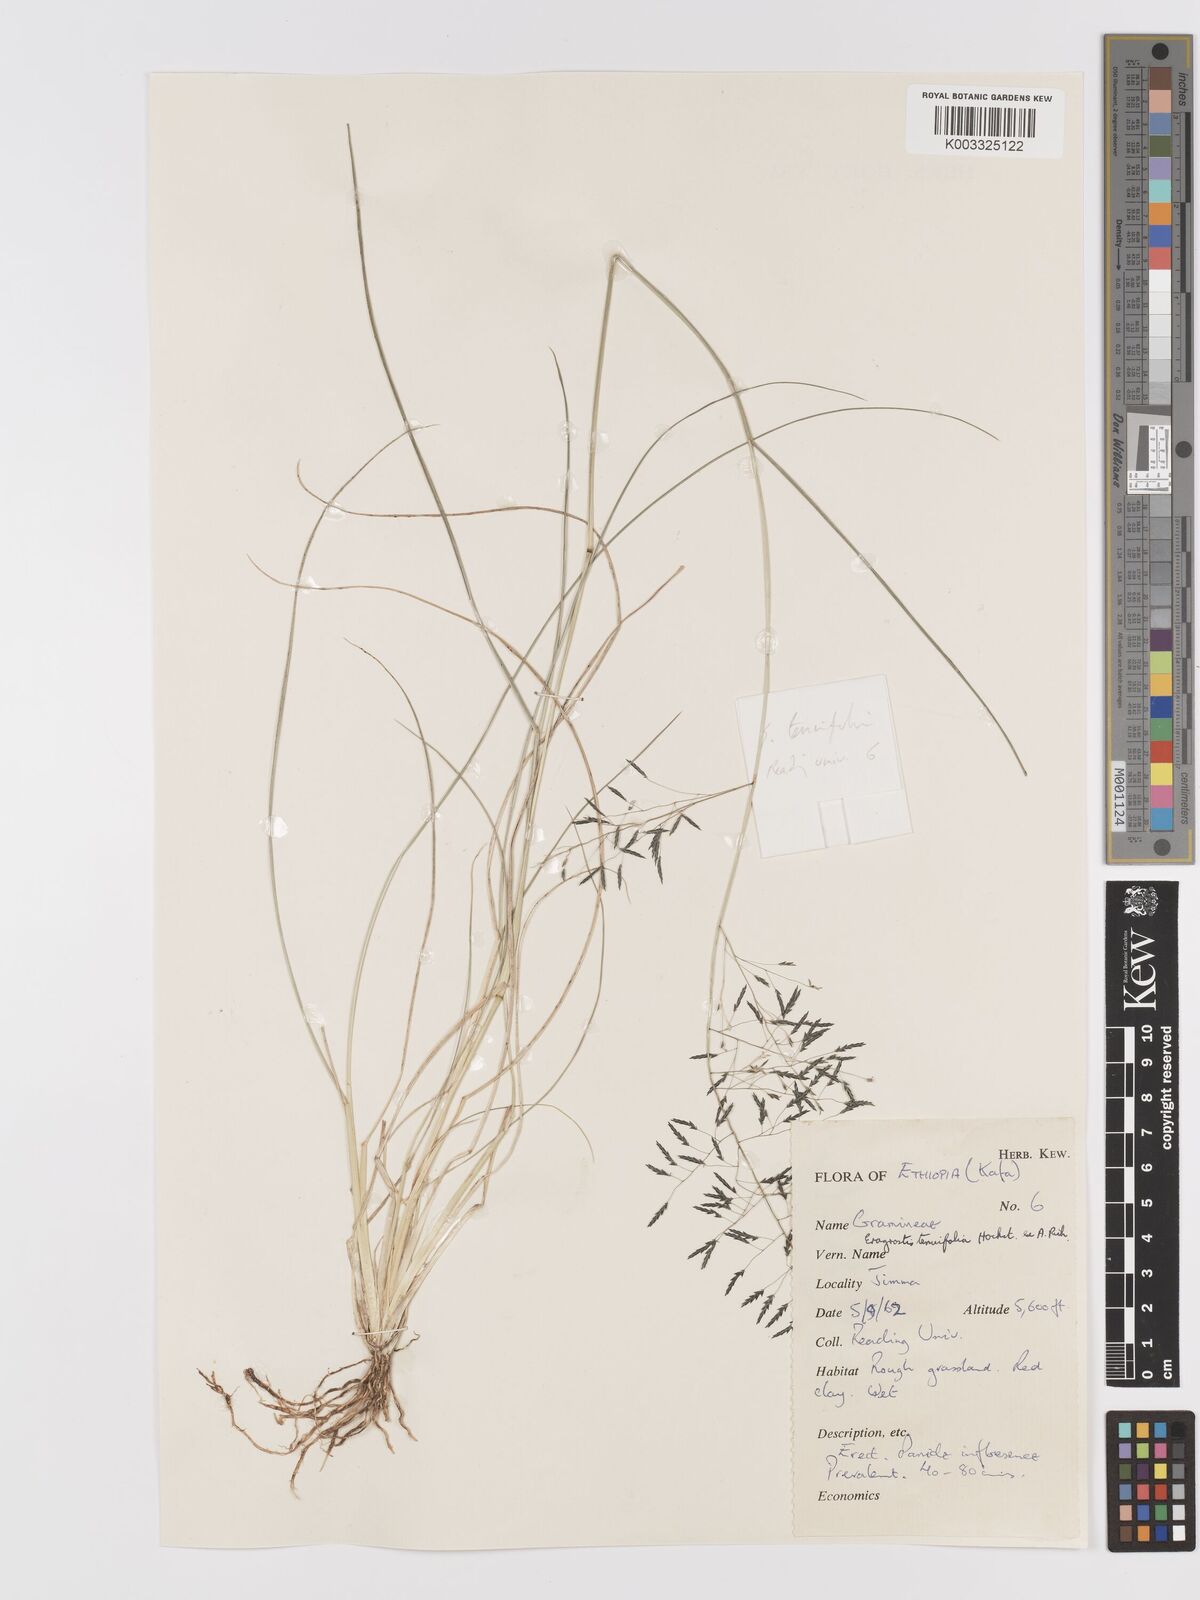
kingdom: Plantae
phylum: Tracheophyta
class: Liliopsida
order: Poales
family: Poaceae
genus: Eragrostis
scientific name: Eragrostis tenuifolia
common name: Elastic grass
